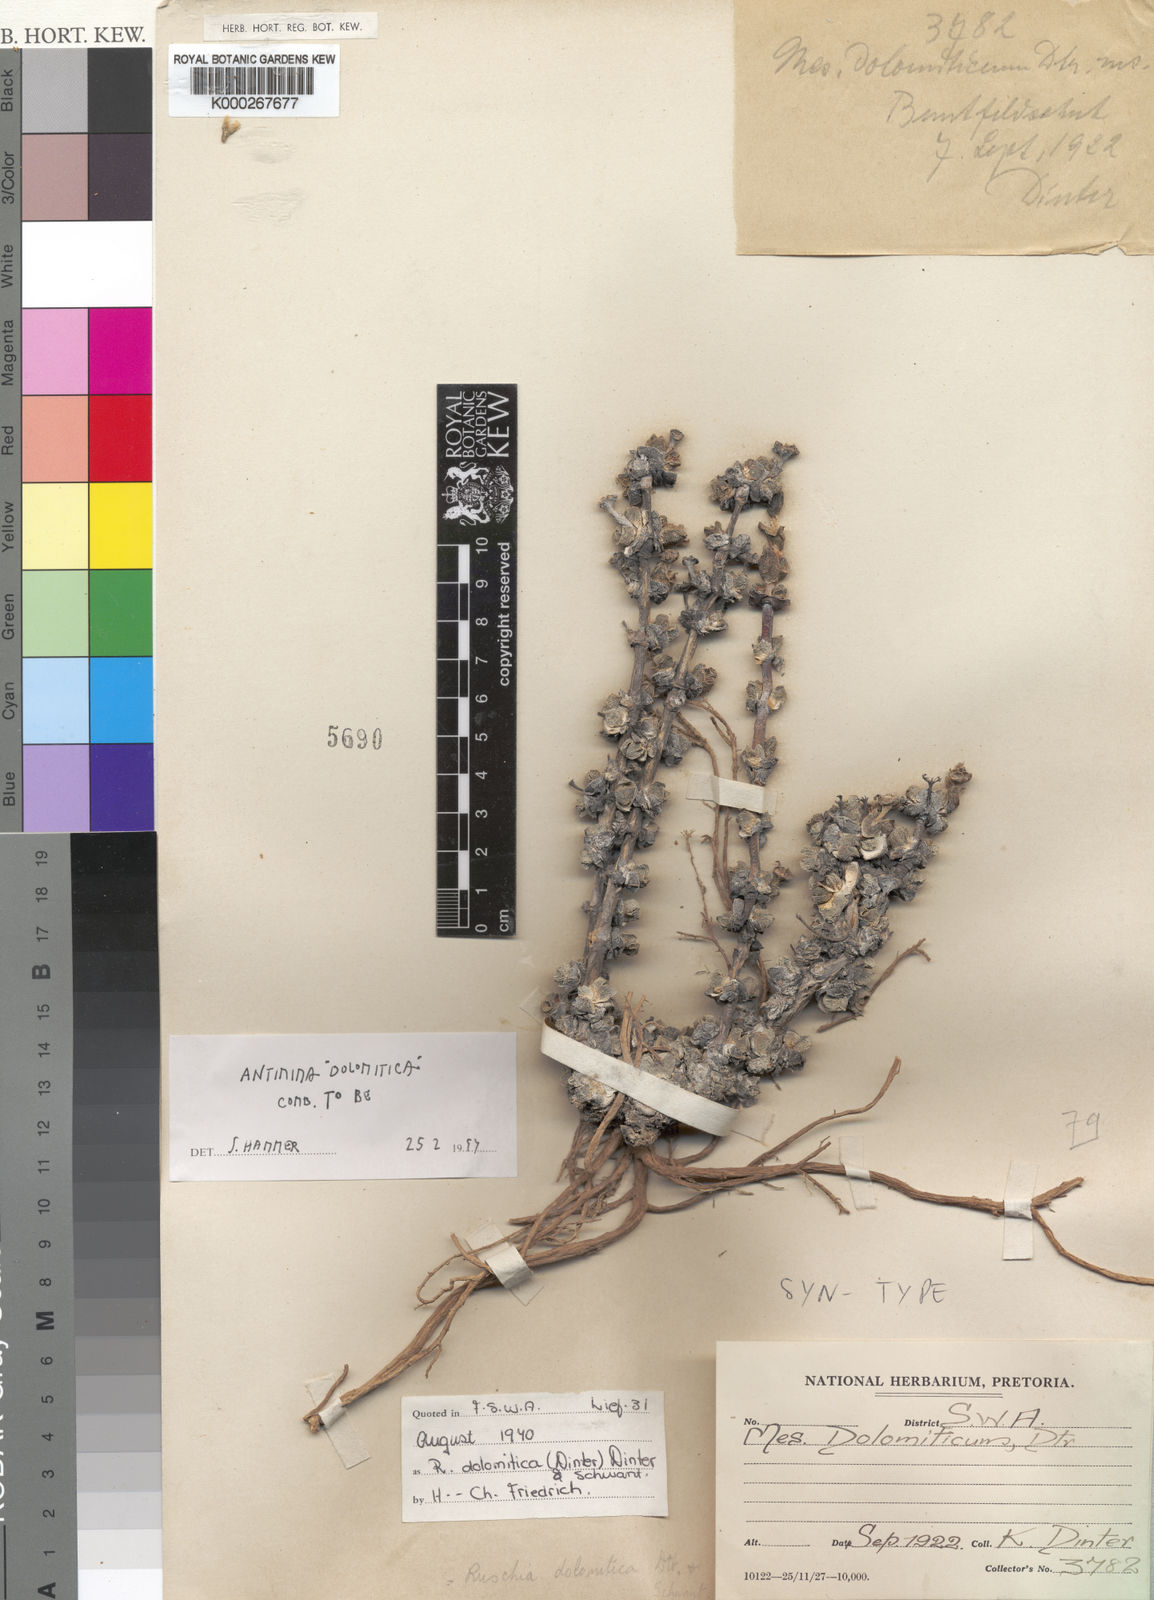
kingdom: Plantae
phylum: Tracheophyta
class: Magnoliopsida
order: Caryophyllales
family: Aizoaceae
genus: Antimima
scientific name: Antimima dolomitica
